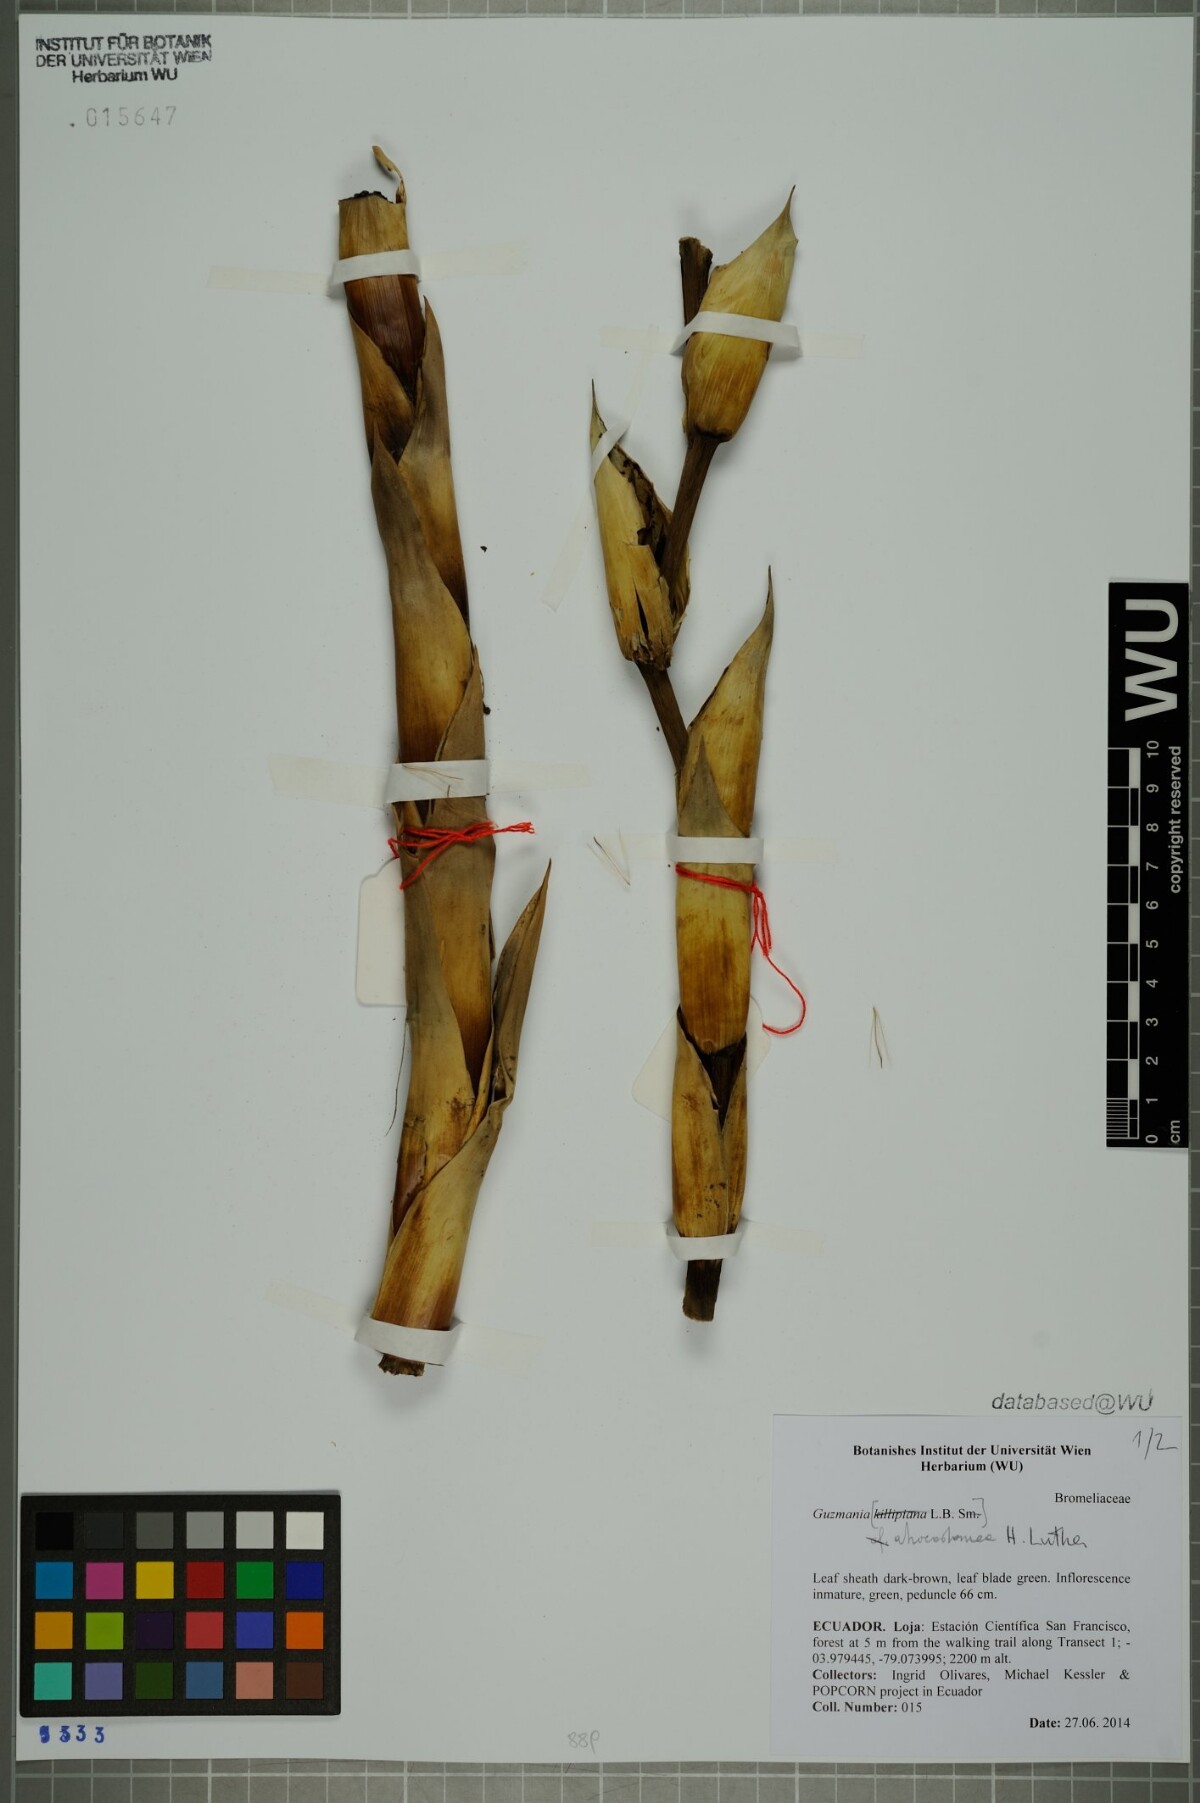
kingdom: Plantae
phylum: Tracheophyta
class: Liliopsida
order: Poales
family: Bromeliaceae
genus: Guzmania
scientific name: Guzmania atrocastanea
